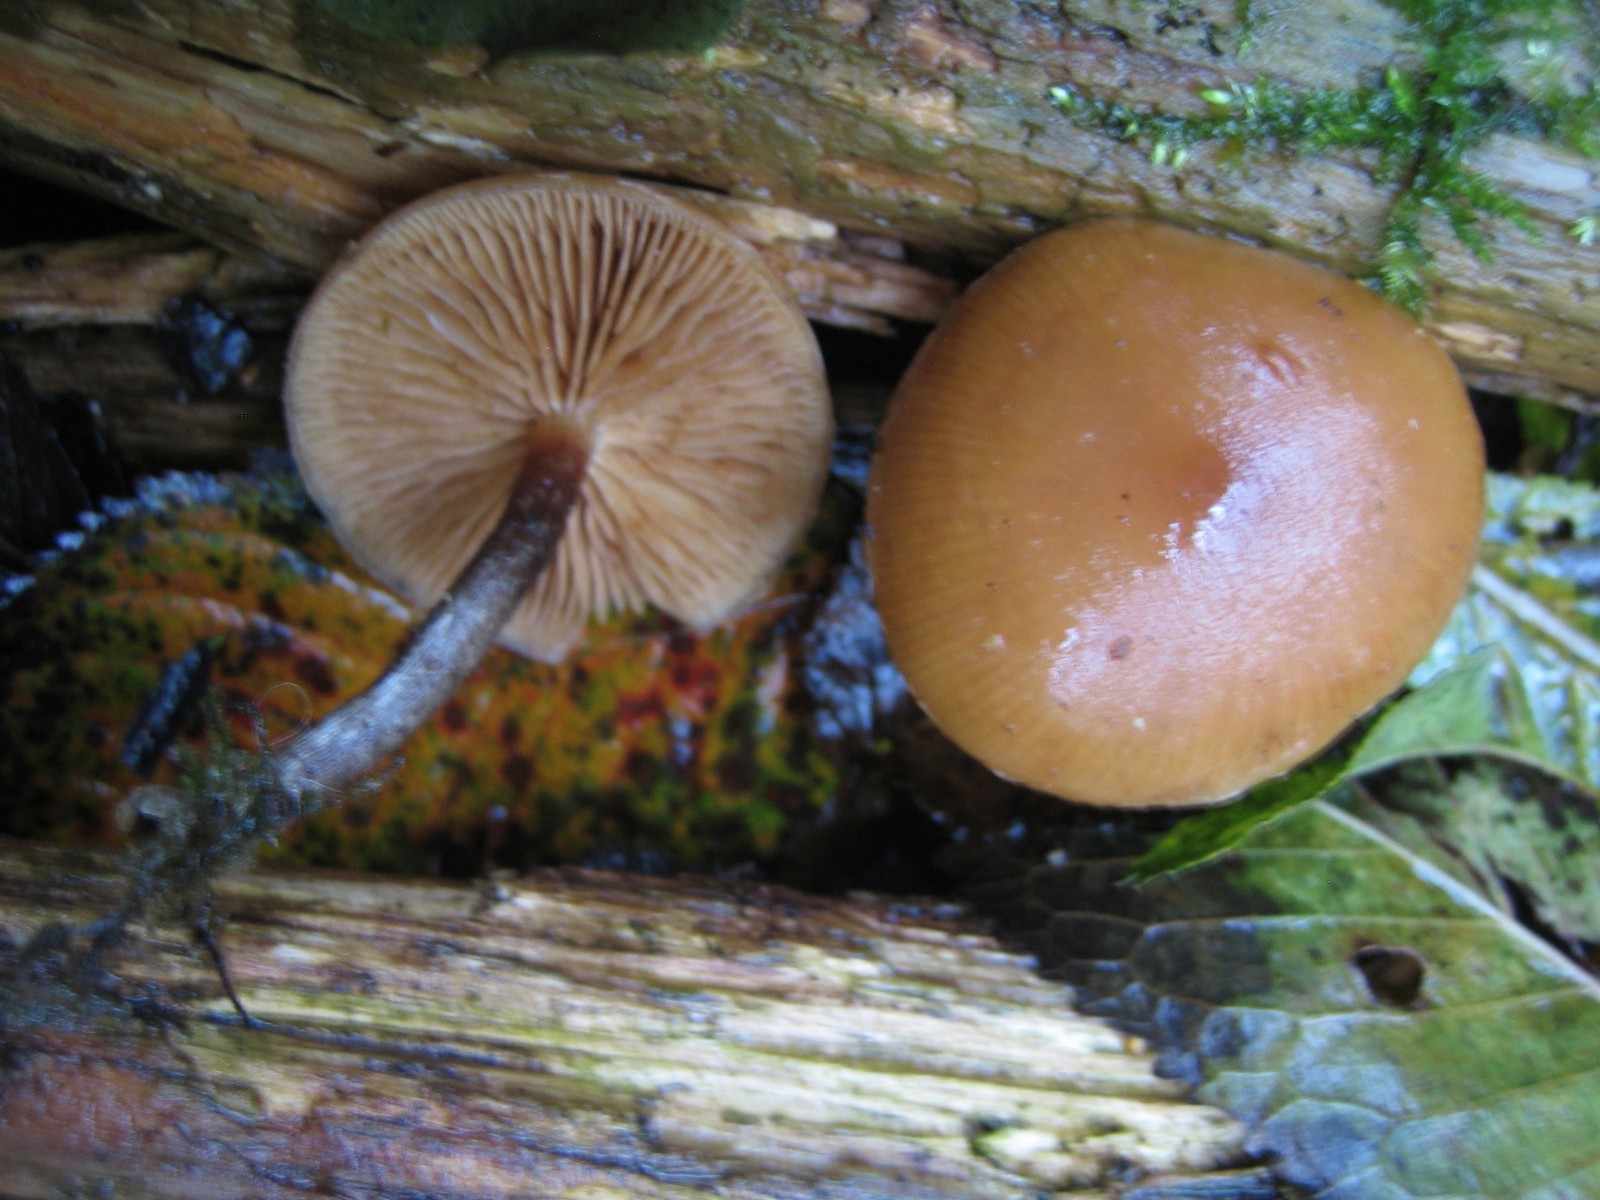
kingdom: Fungi
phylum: Basidiomycota
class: Agaricomycetes
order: Agaricales
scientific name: Agaricales
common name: champignonordenen
